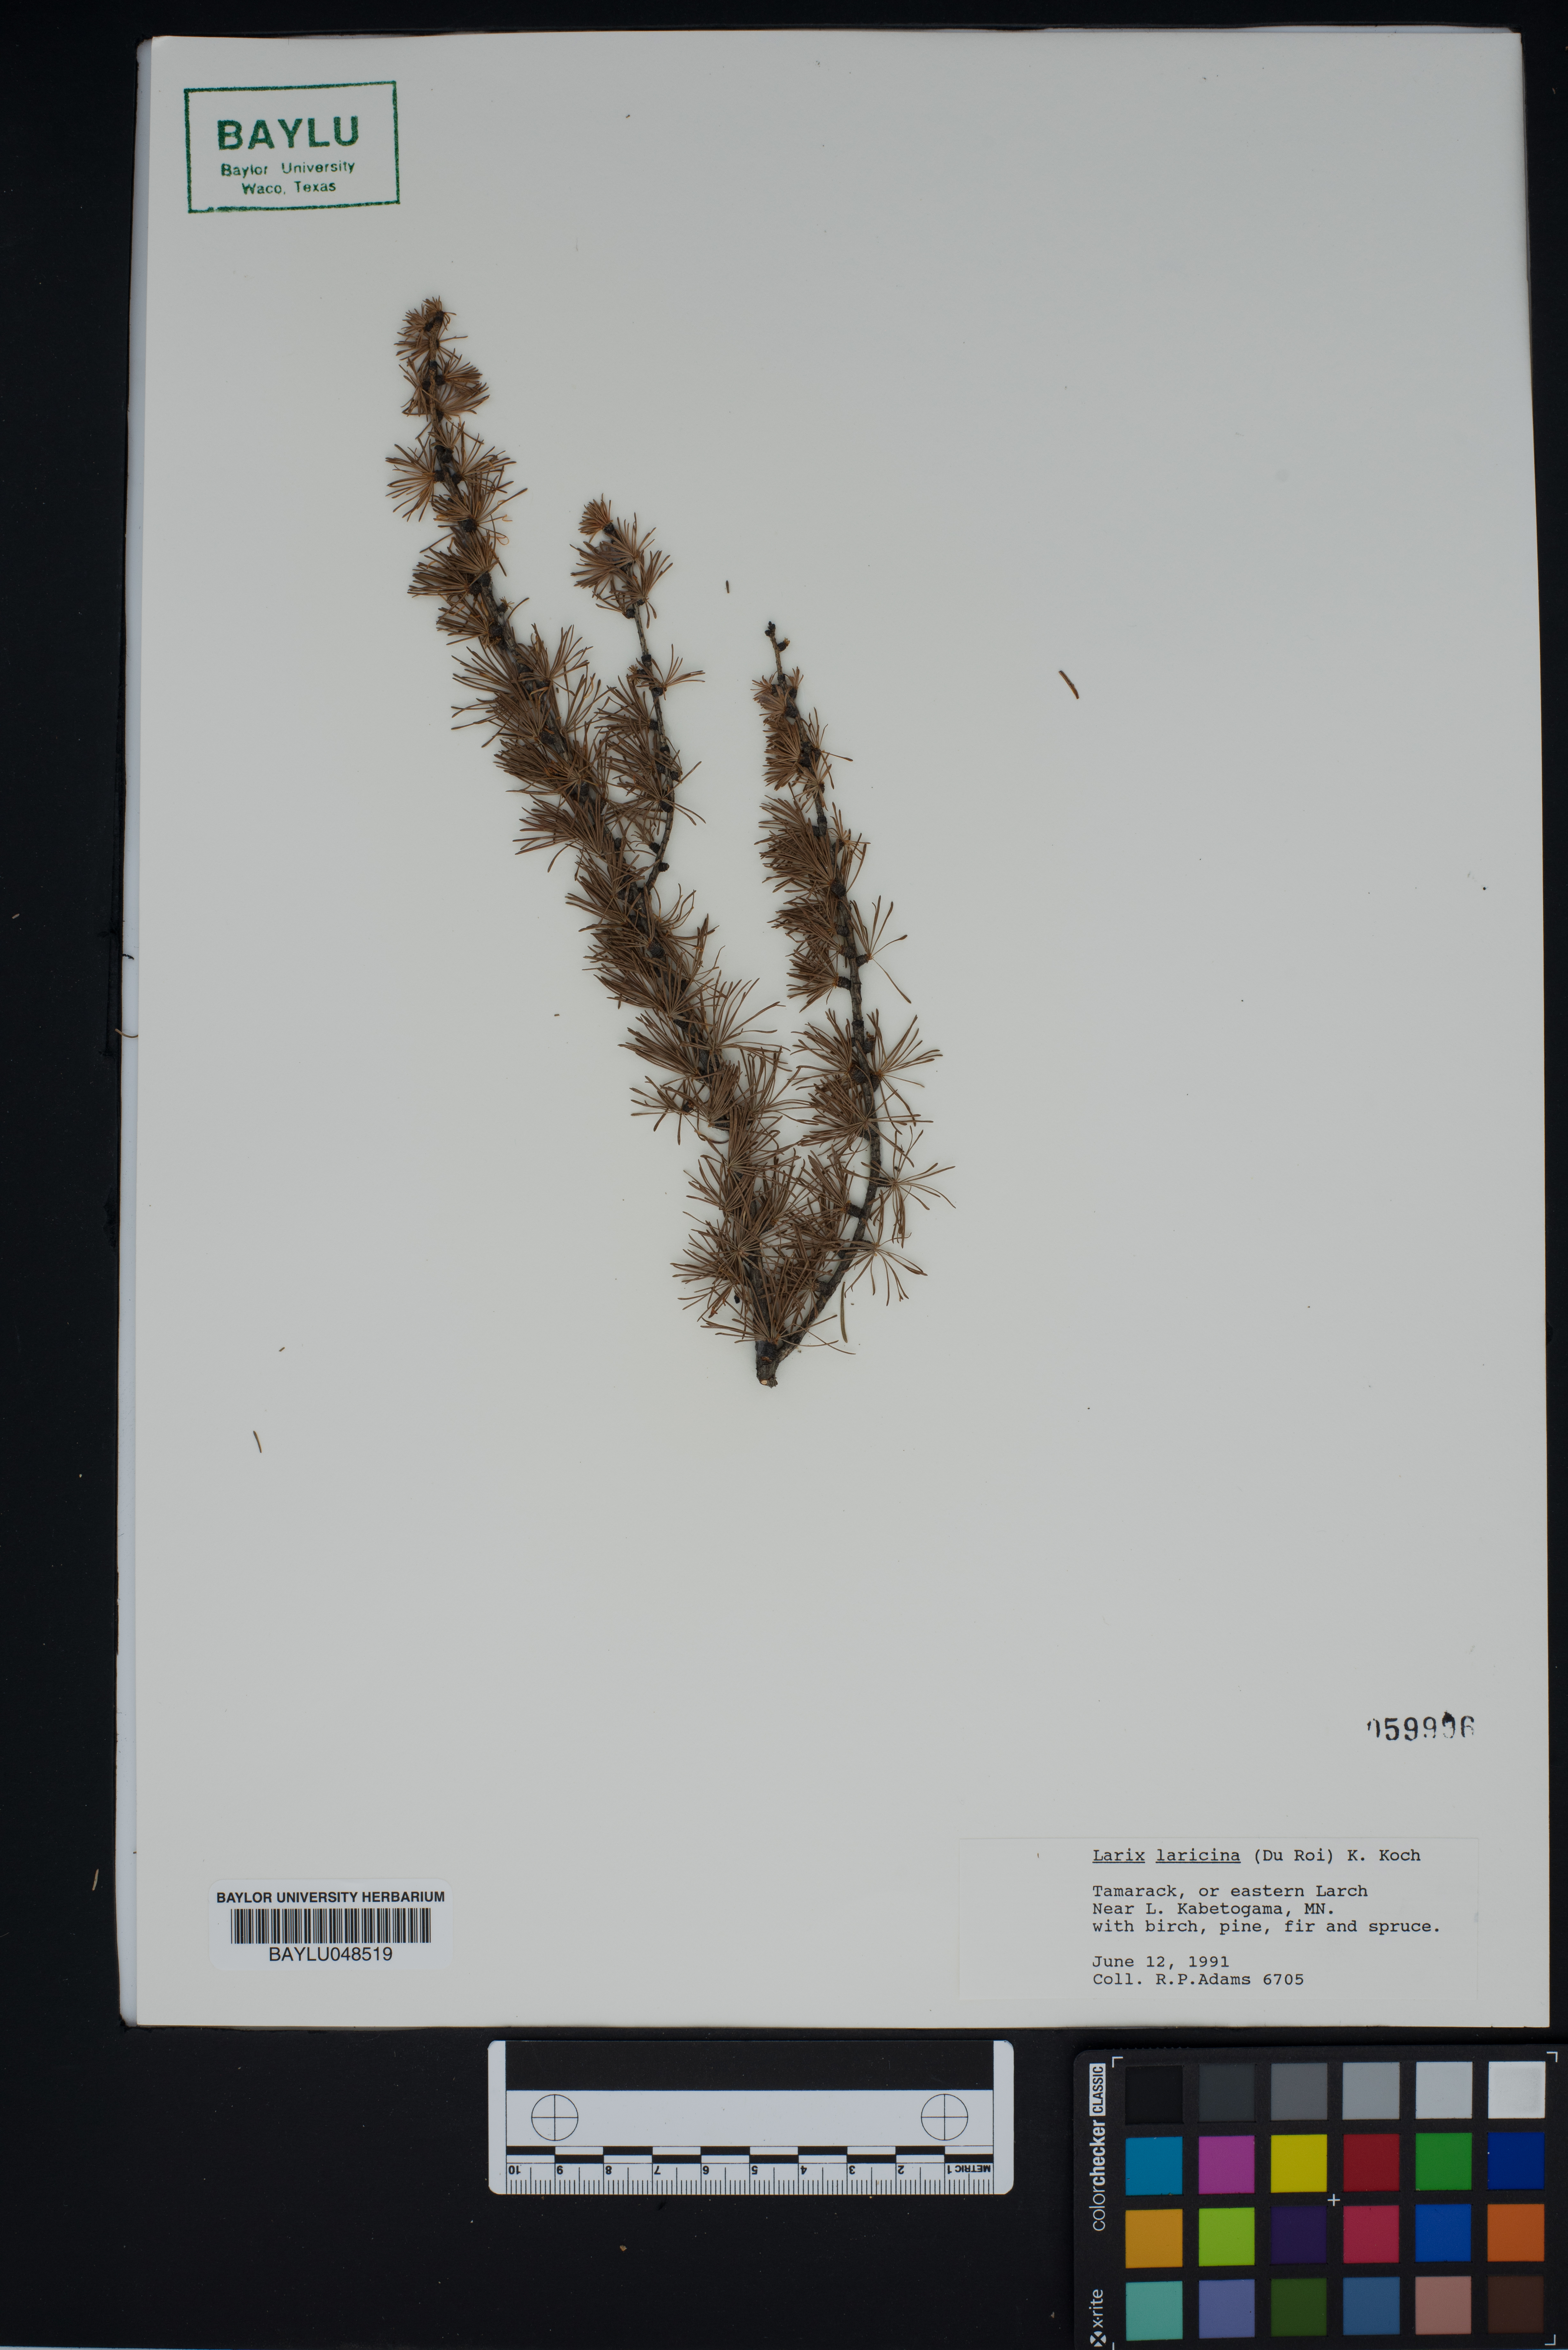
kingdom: Plantae
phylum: Tracheophyta
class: Pinopsida
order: Pinales
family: Pinaceae
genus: Larix
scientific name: Larix laricina
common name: American larch
